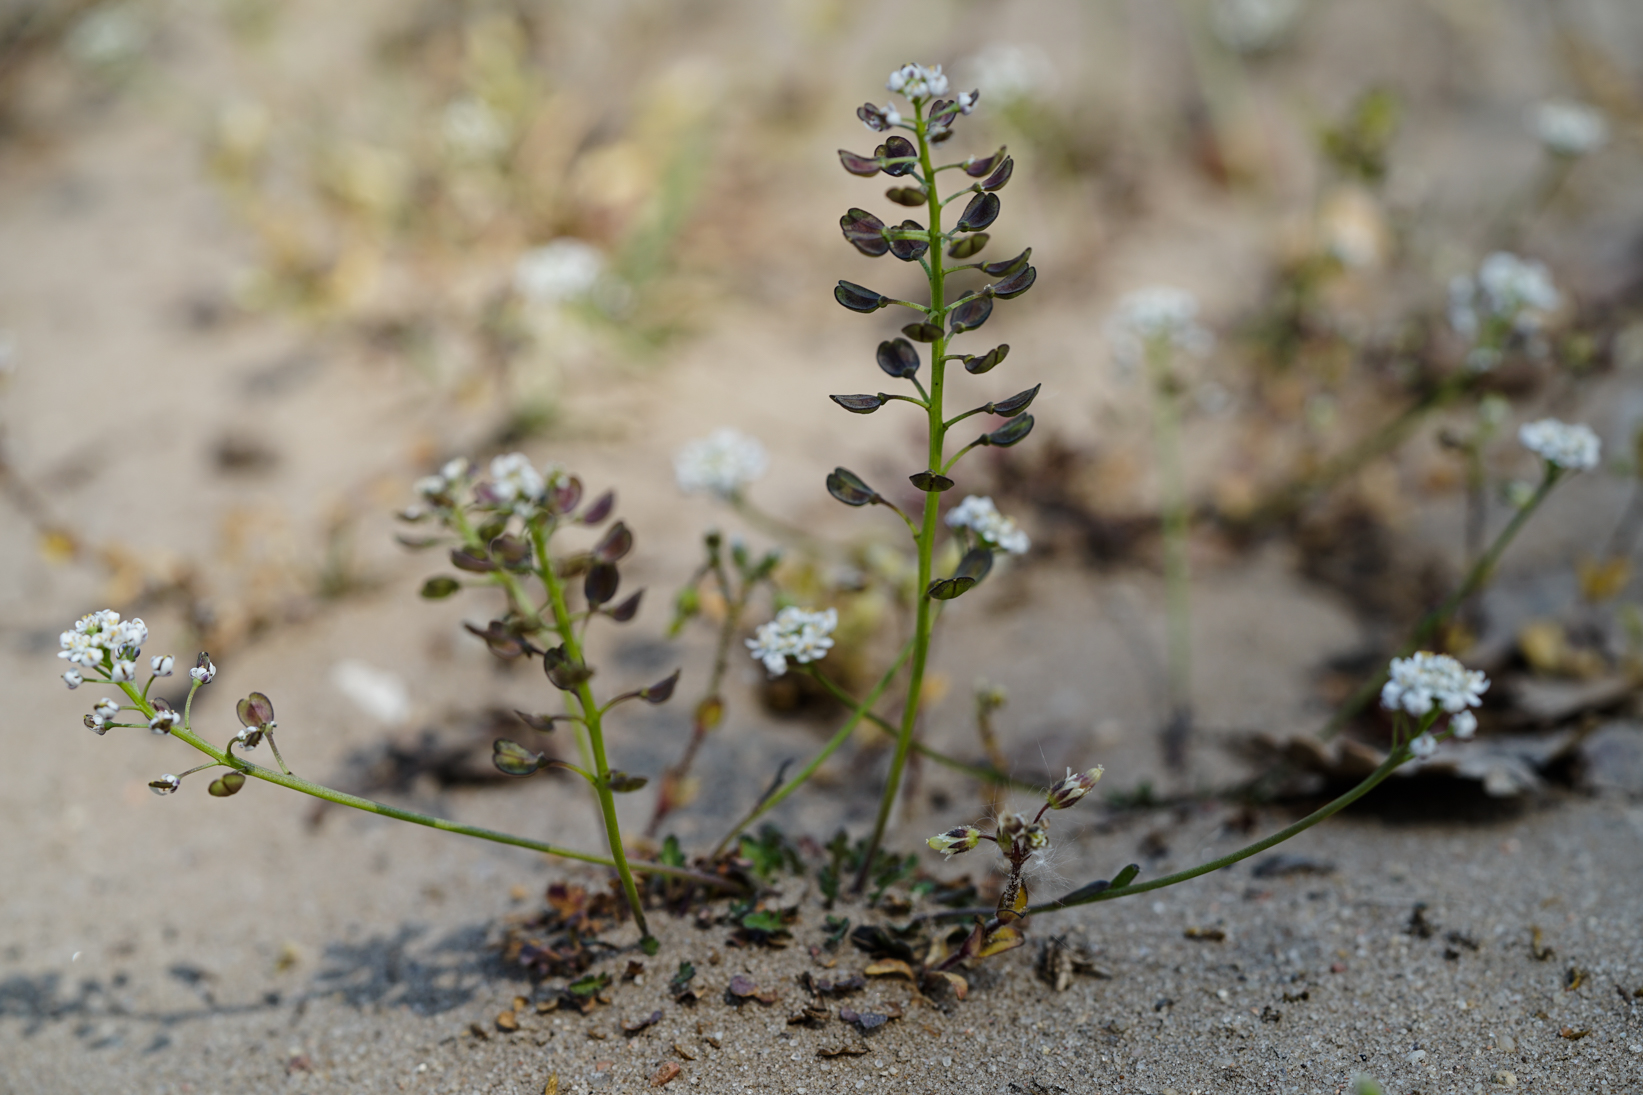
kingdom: Plantae
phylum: Tracheophyta
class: Magnoliopsida
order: Brassicales
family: Brassicaceae
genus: Teesdalia
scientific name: Teesdalia nudicaulis
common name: Shepherd's cress
